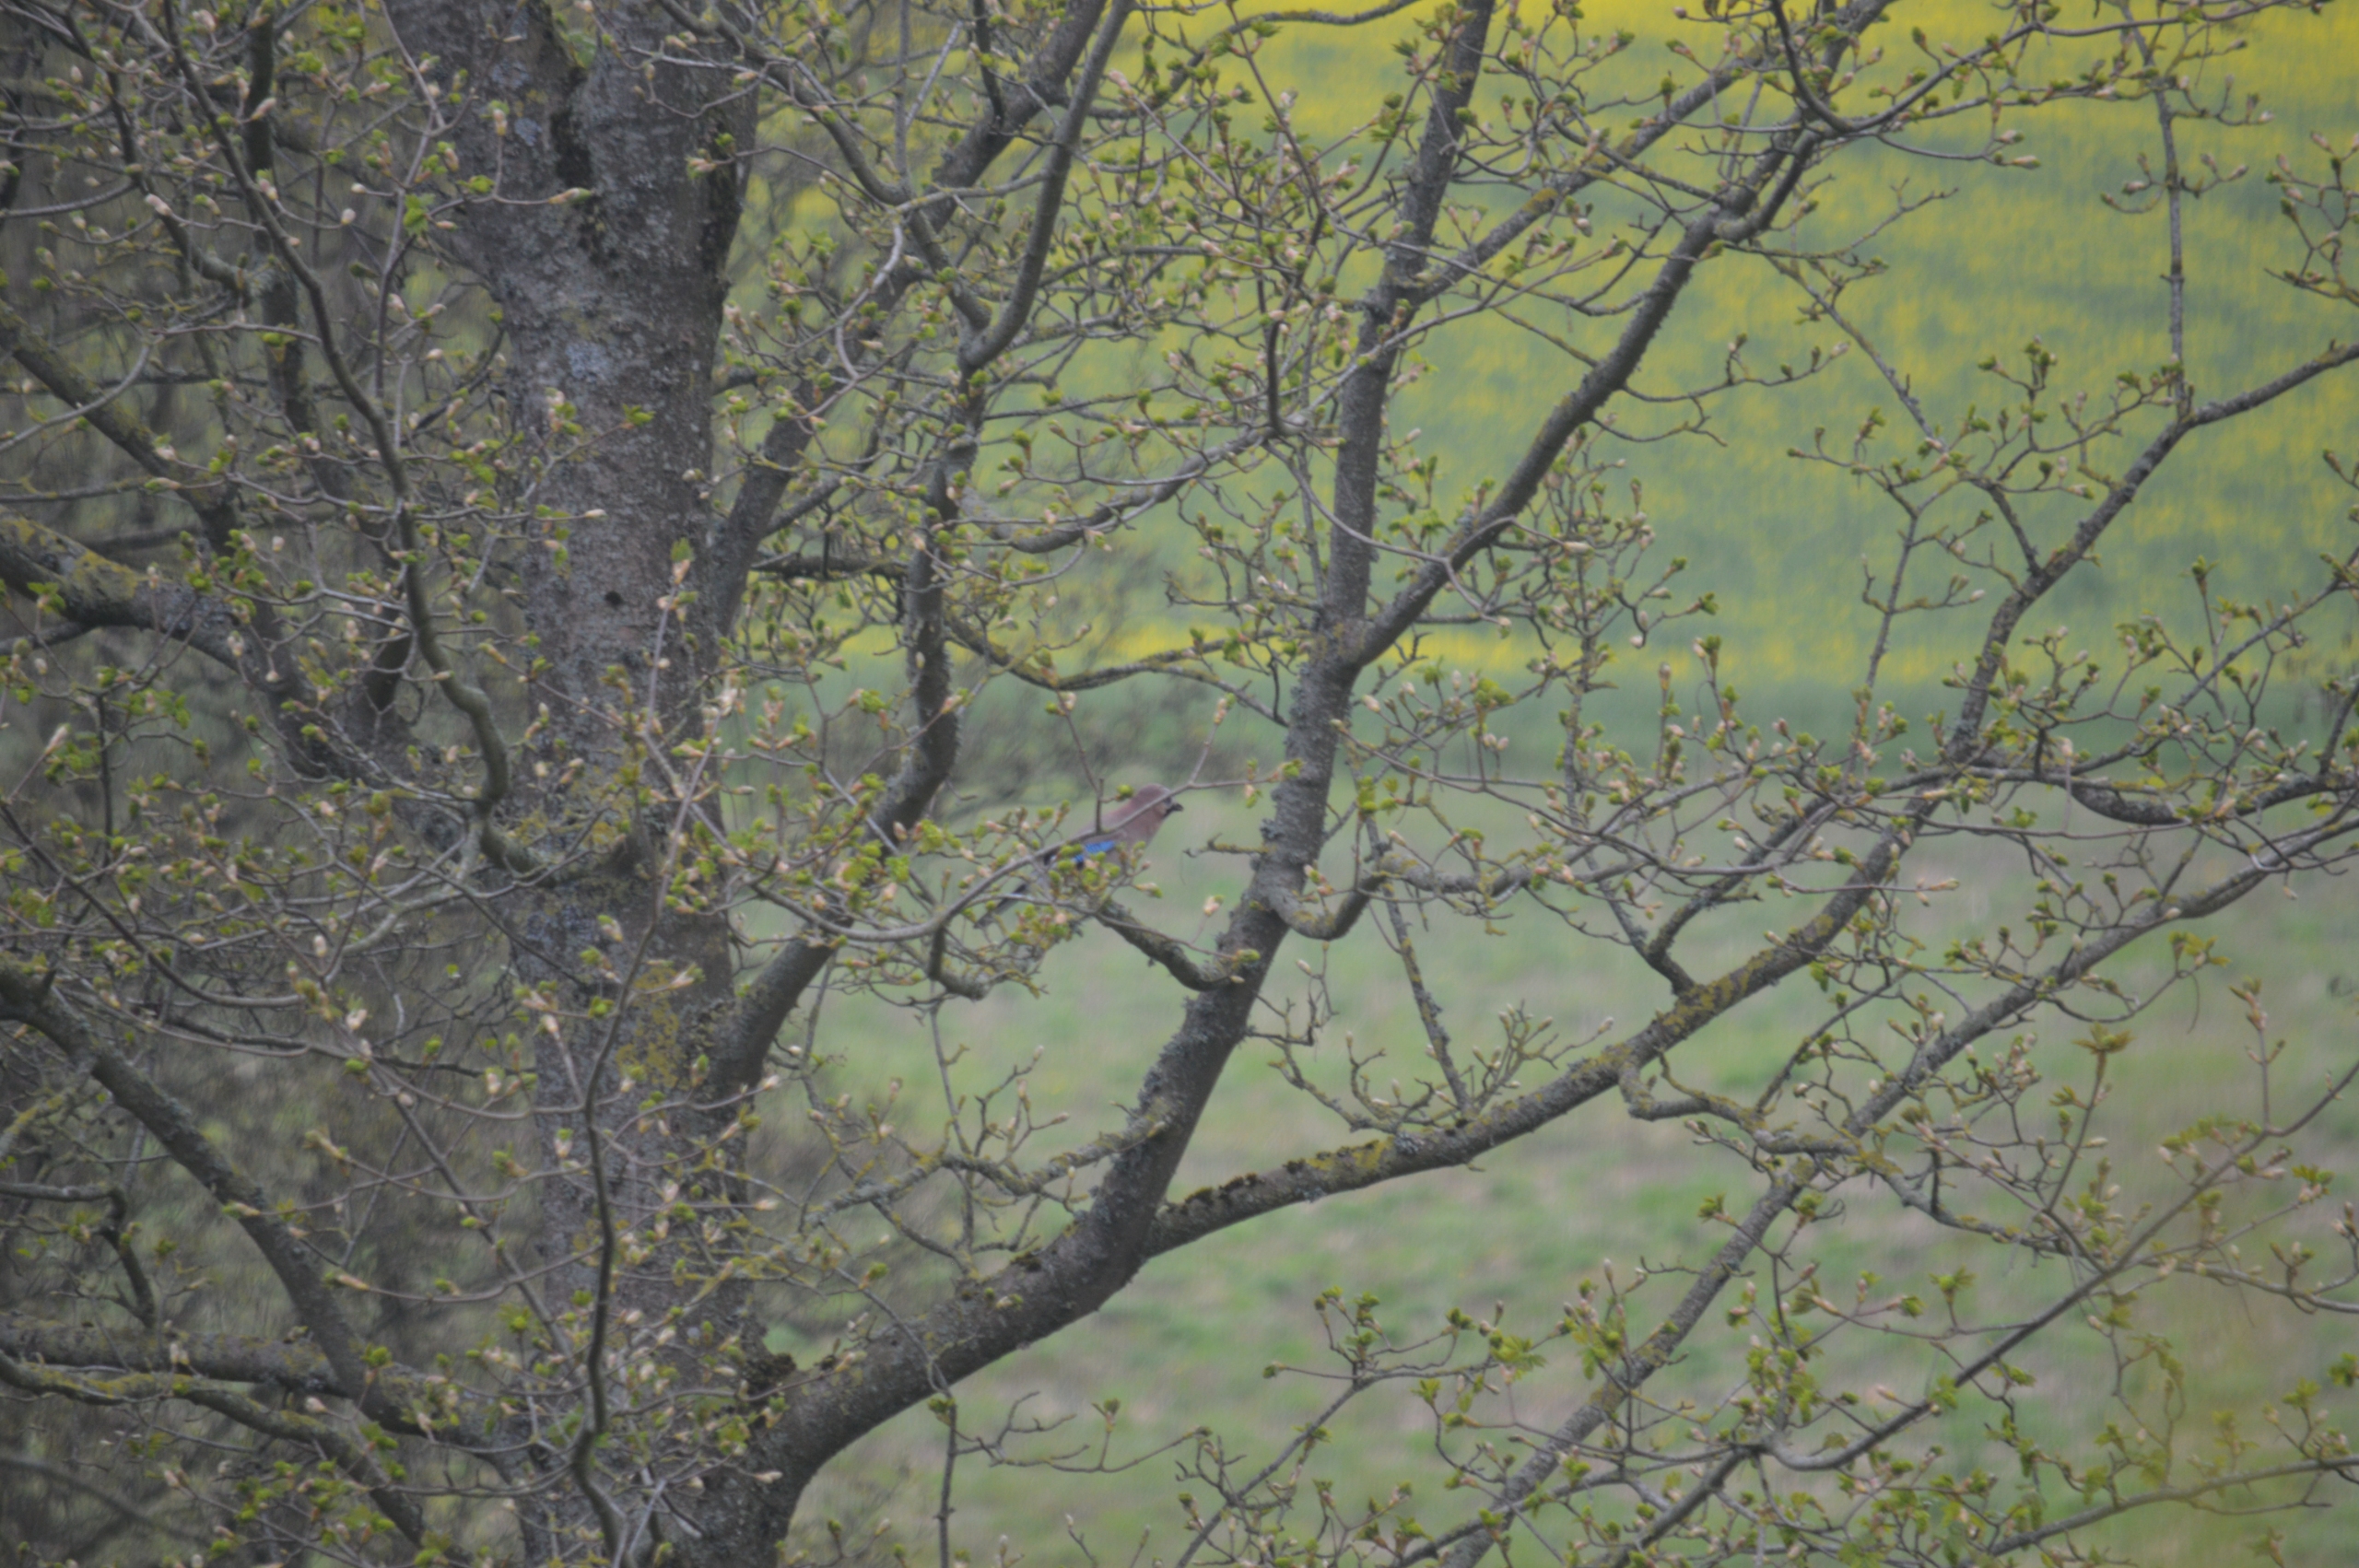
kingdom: Animalia
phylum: Chordata
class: Aves
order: Passeriformes
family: Corvidae
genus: Garrulus
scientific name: Garrulus glandarius
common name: Skovskade
